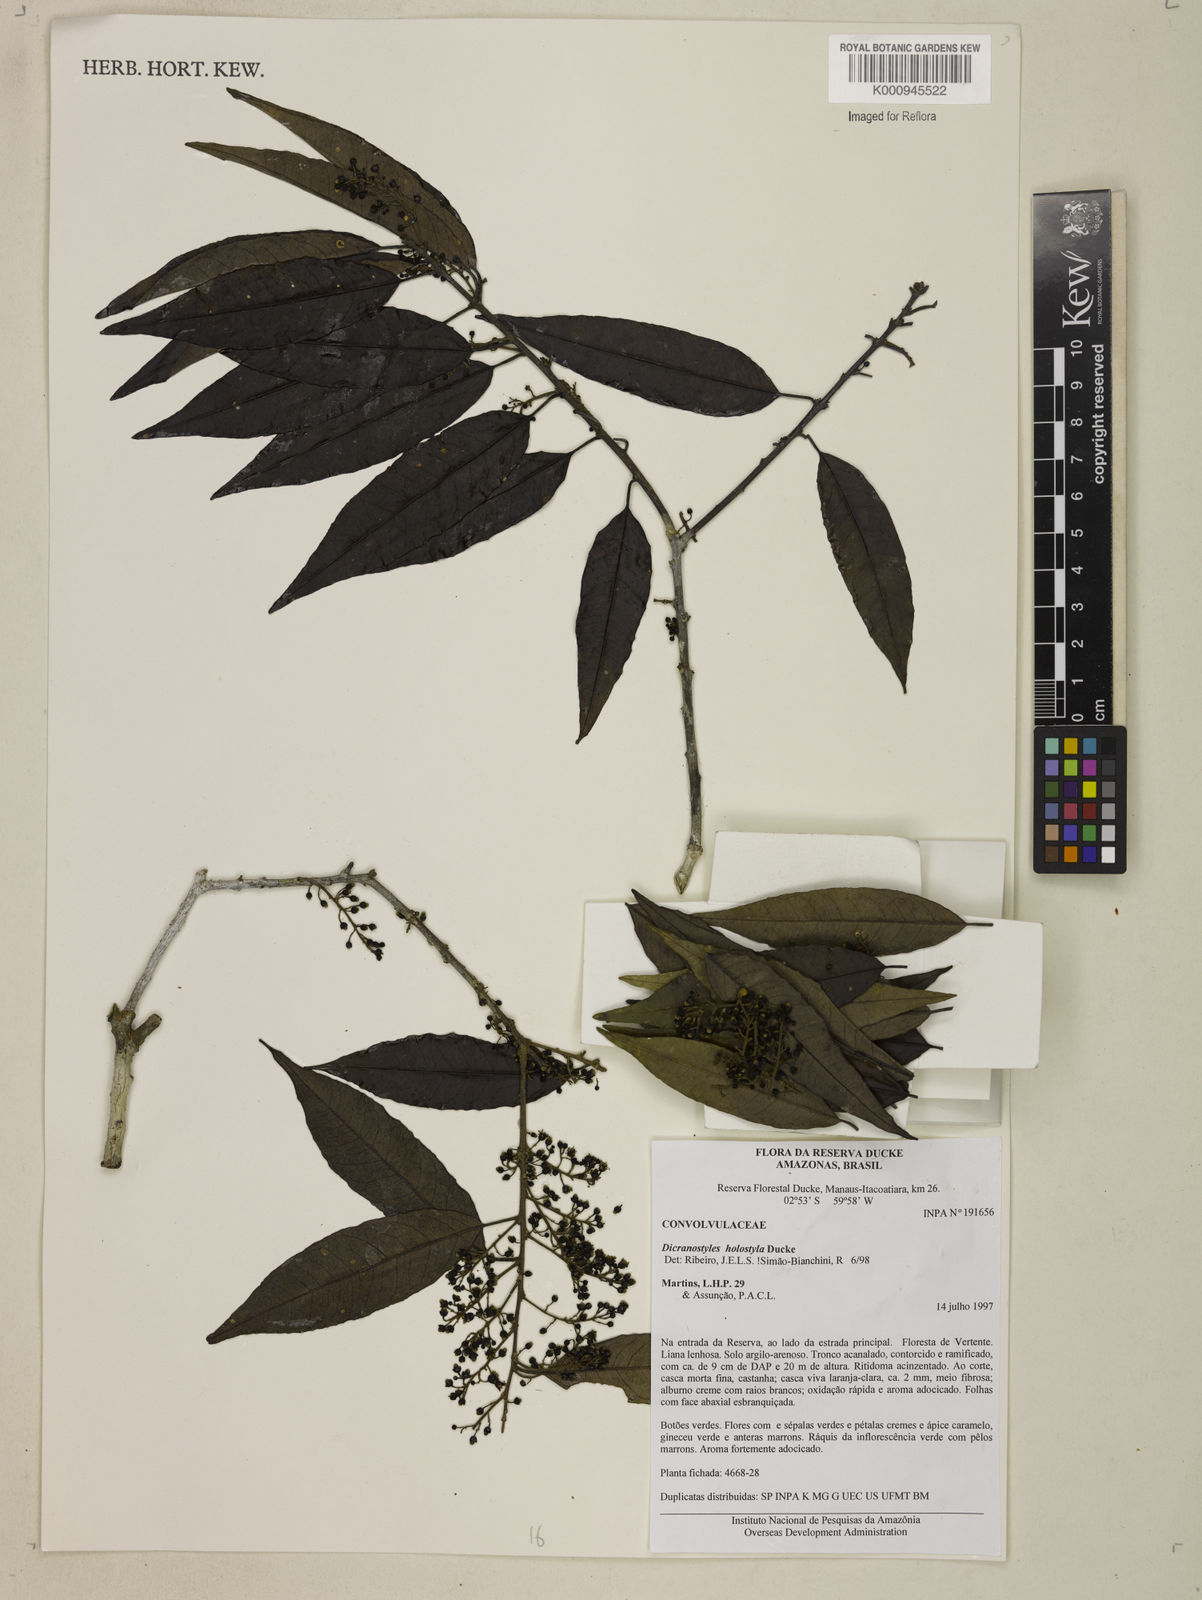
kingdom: Plantae
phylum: Tracheophyta
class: Magnoliopsida
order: Solanales
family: Convolvulaceae
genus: Dicranostyles
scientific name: Dicranostyles holostyla
